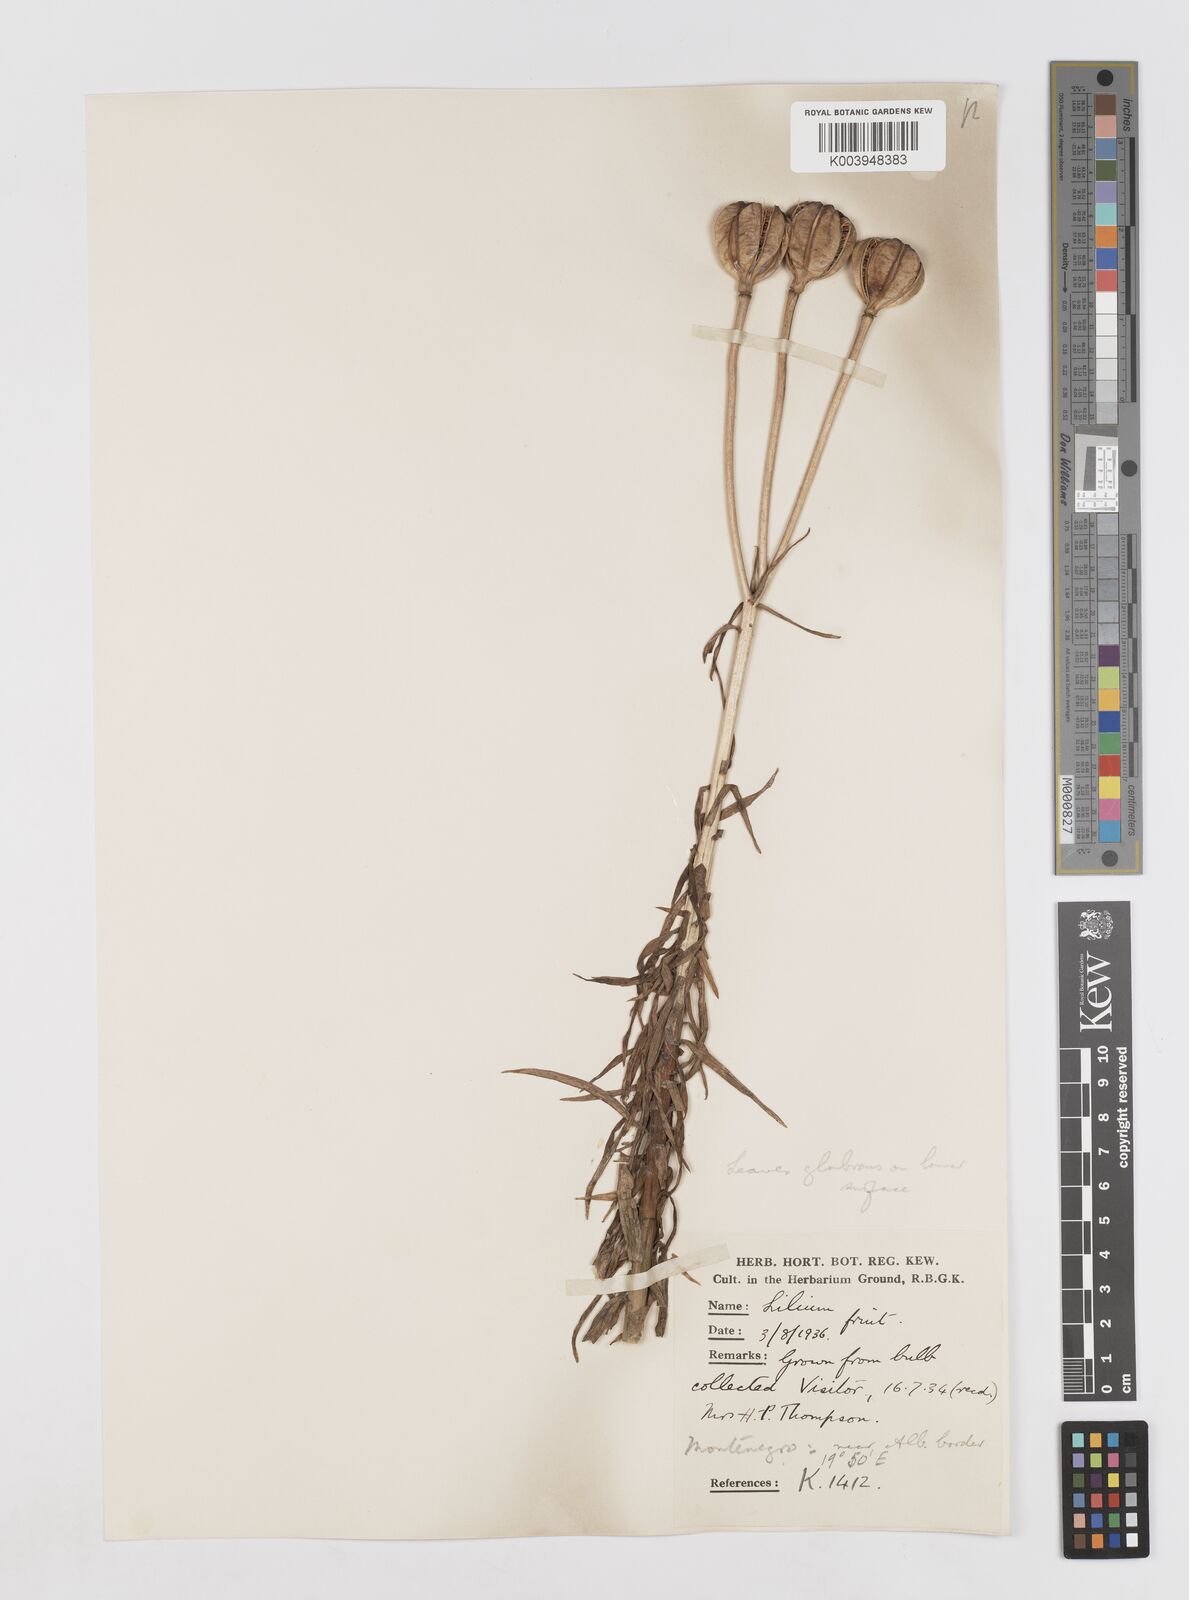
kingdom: Plantae
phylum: Tracheophyta
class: Liliopsida
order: Liliales
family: Liliaceae
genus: Lilium
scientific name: Lilium
